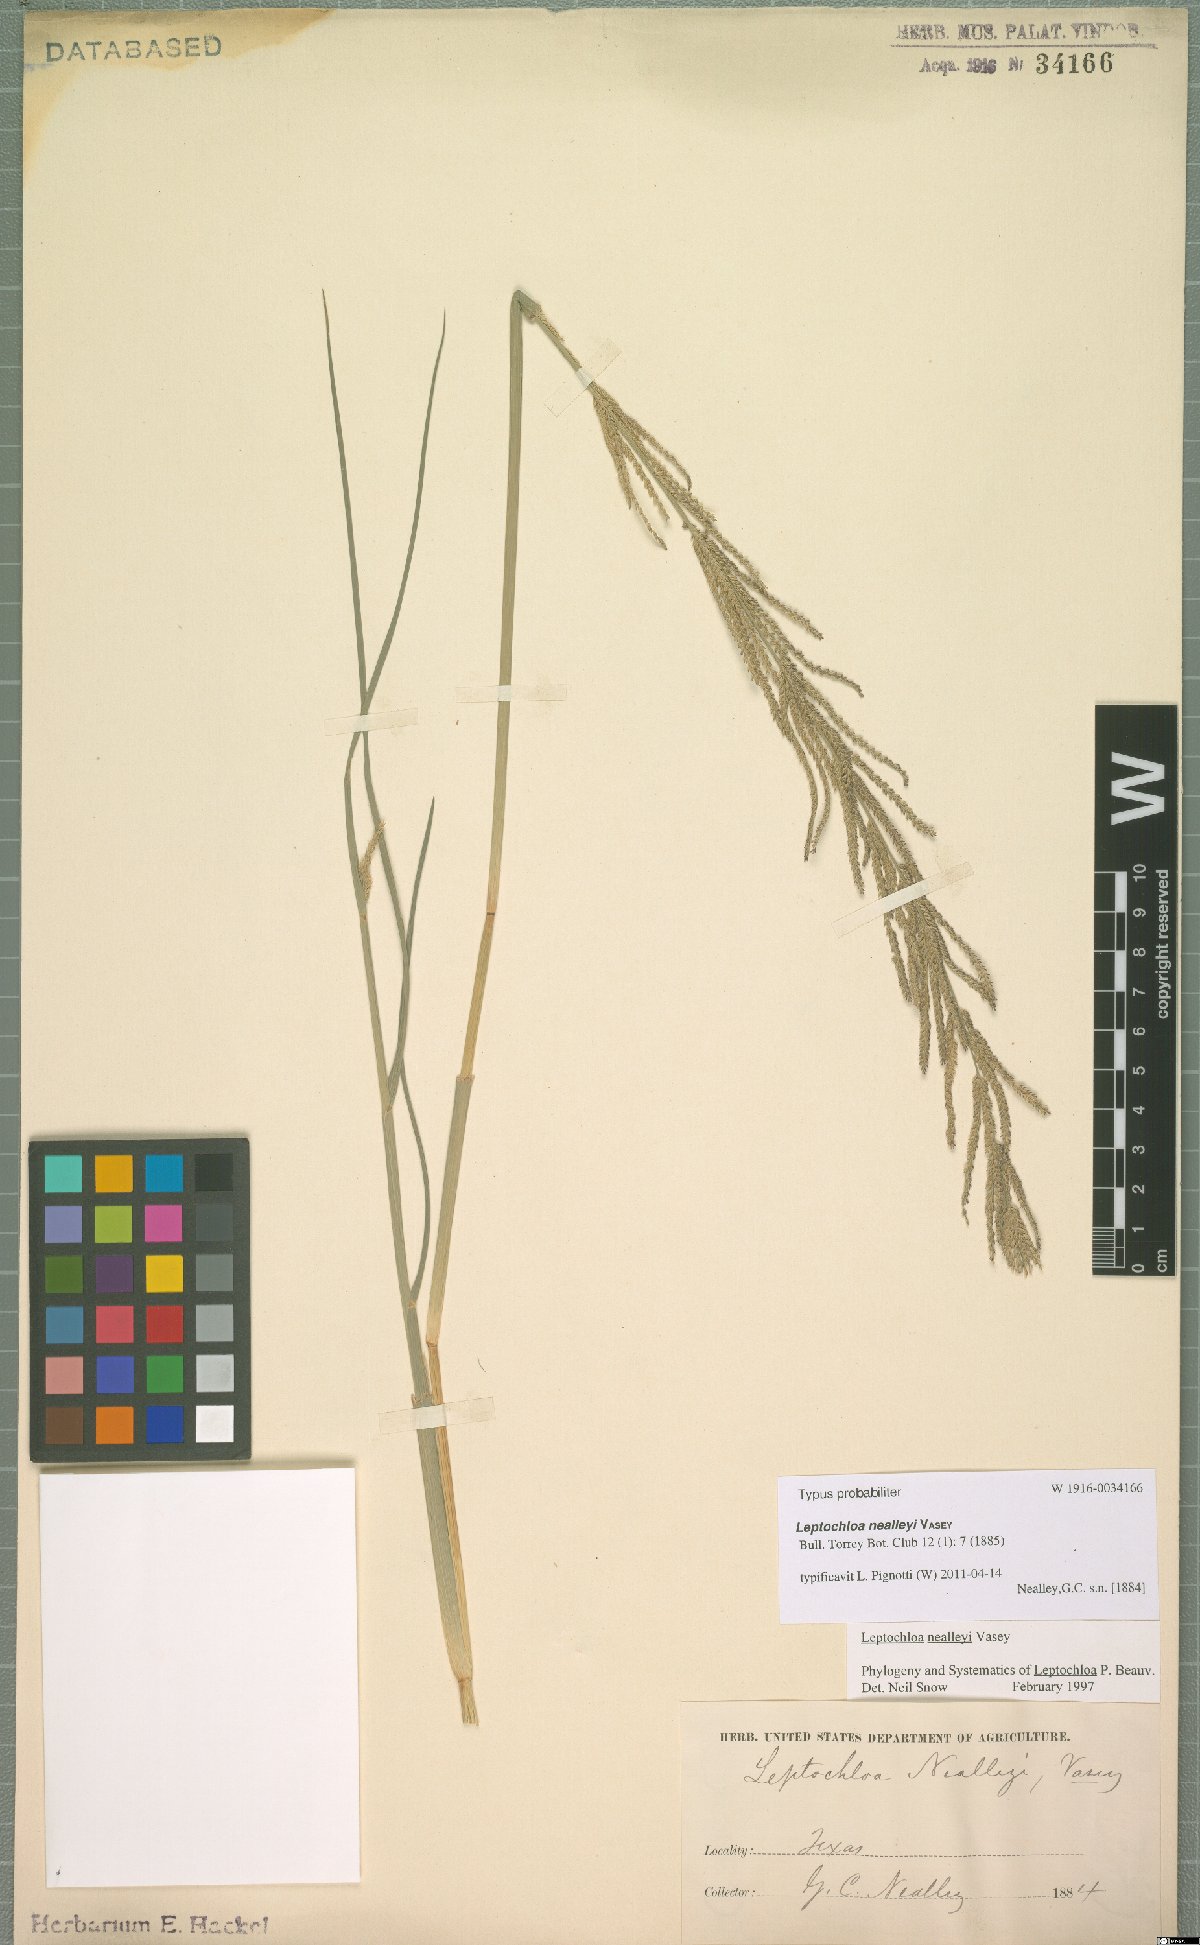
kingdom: Plantae
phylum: Tracheophyta
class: Liliopsida
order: Poales
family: Poaceae
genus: Leptochloa
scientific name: Leptochloa nealleyi
